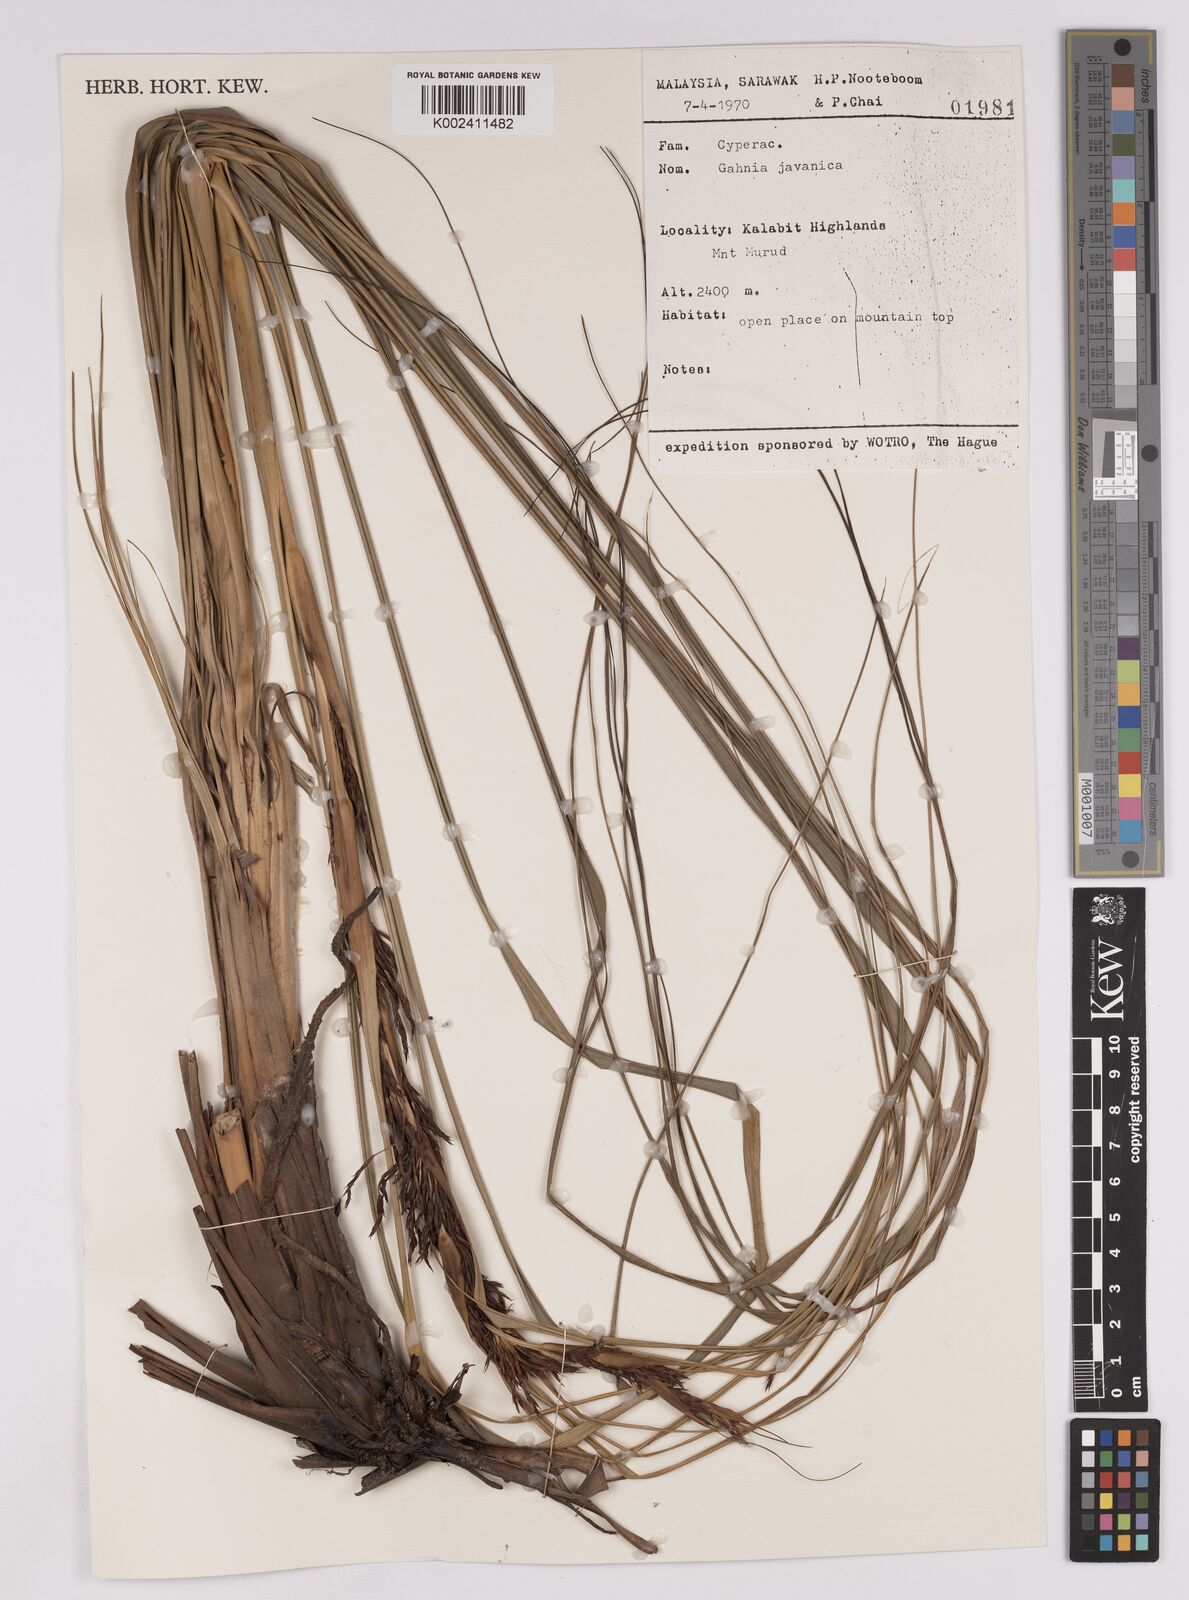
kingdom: Plantae
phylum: Tracheophyta
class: Liliopsida
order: Poales
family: Cyperaceae
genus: Gahnia
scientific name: Gahnia javanica
